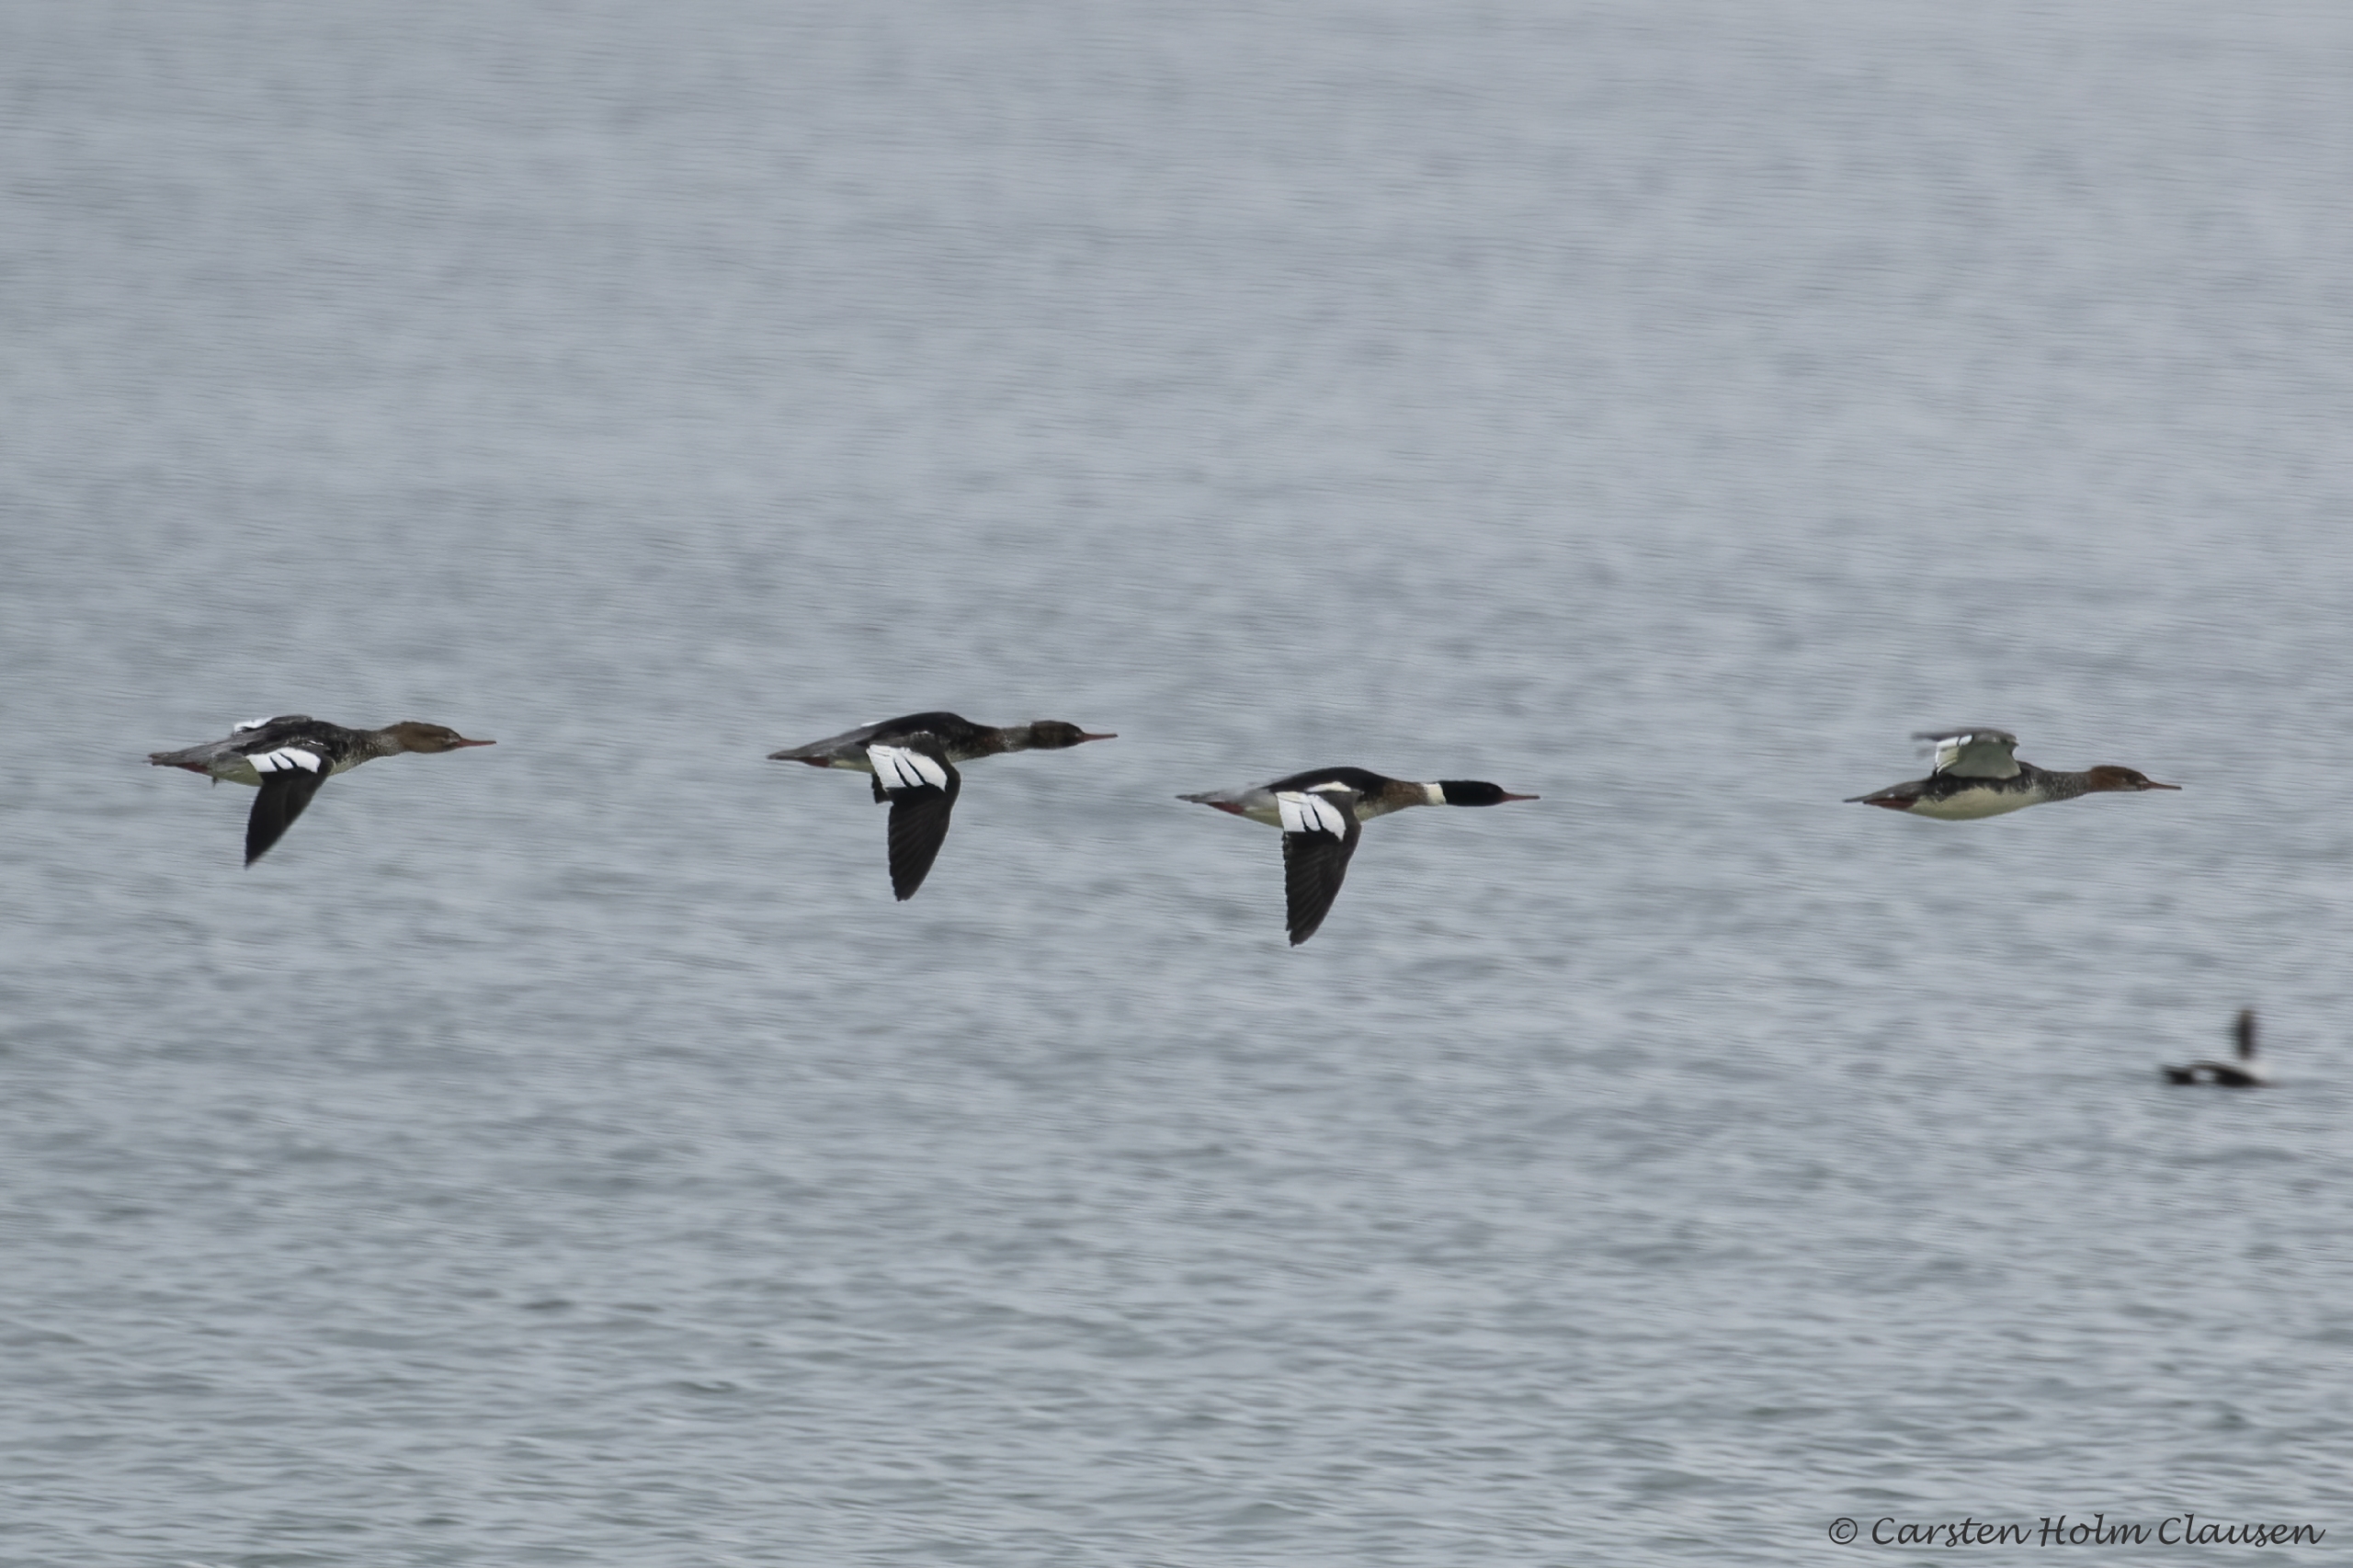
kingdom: Animalia
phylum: Chordata
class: Aves
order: Anseriformes
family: Anatidae
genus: Mergus
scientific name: Mergus serrator
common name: Toppet skallesluger
